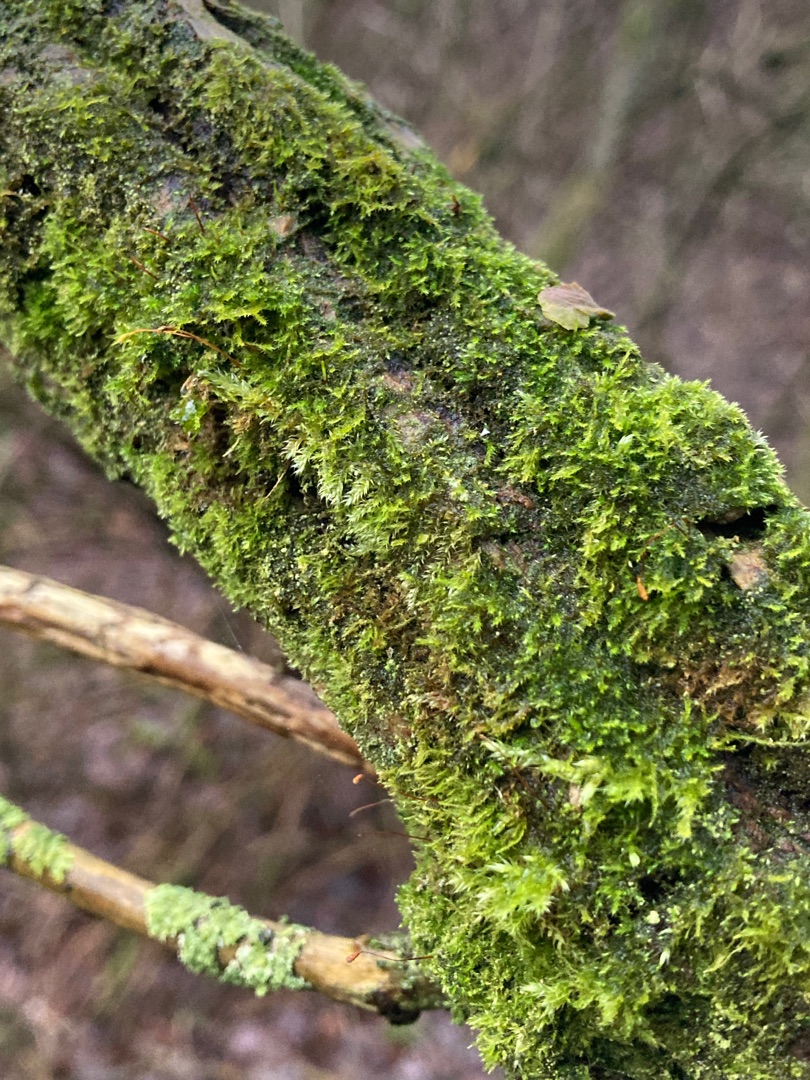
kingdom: Plantae
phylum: Bryophyta
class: Bryopsida
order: Hypnales
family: Amblystegiaceae
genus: Amblystegium
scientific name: Amblystegium serpens
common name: Almindelig krybmos
